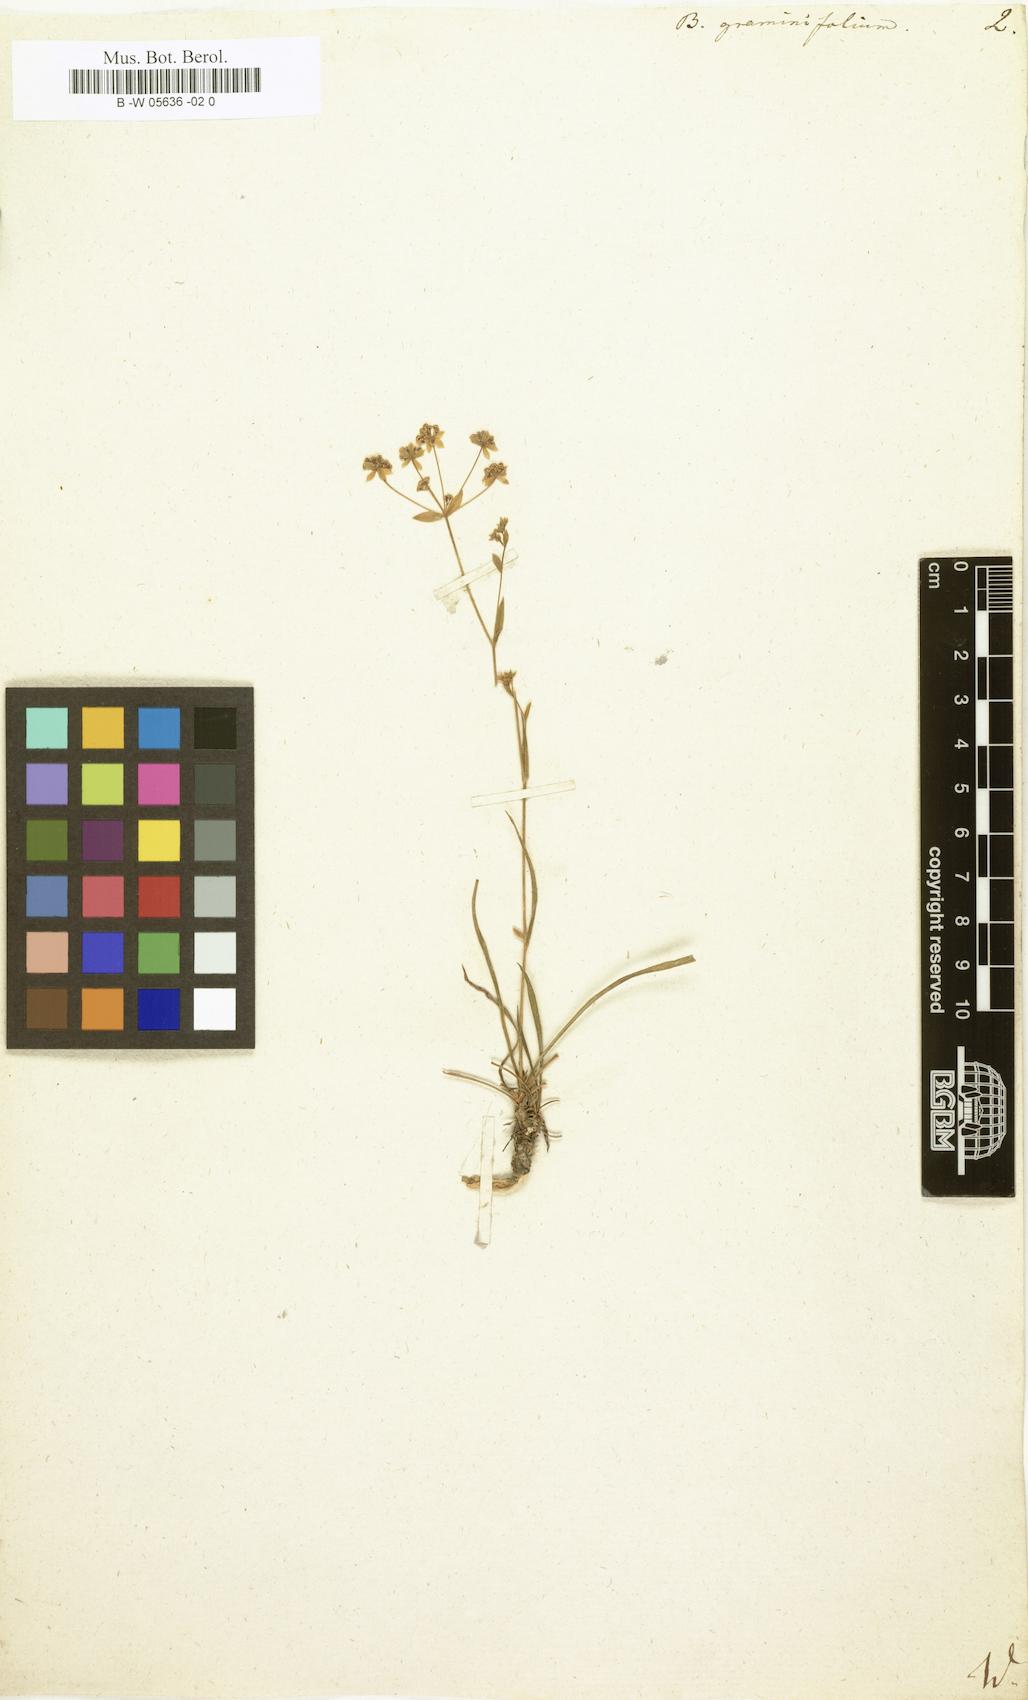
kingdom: Plantae
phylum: Tracheophyta
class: Magnoliopsida
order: Apiales
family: Apiaceae
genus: Bupleurum
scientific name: Bupleurum
